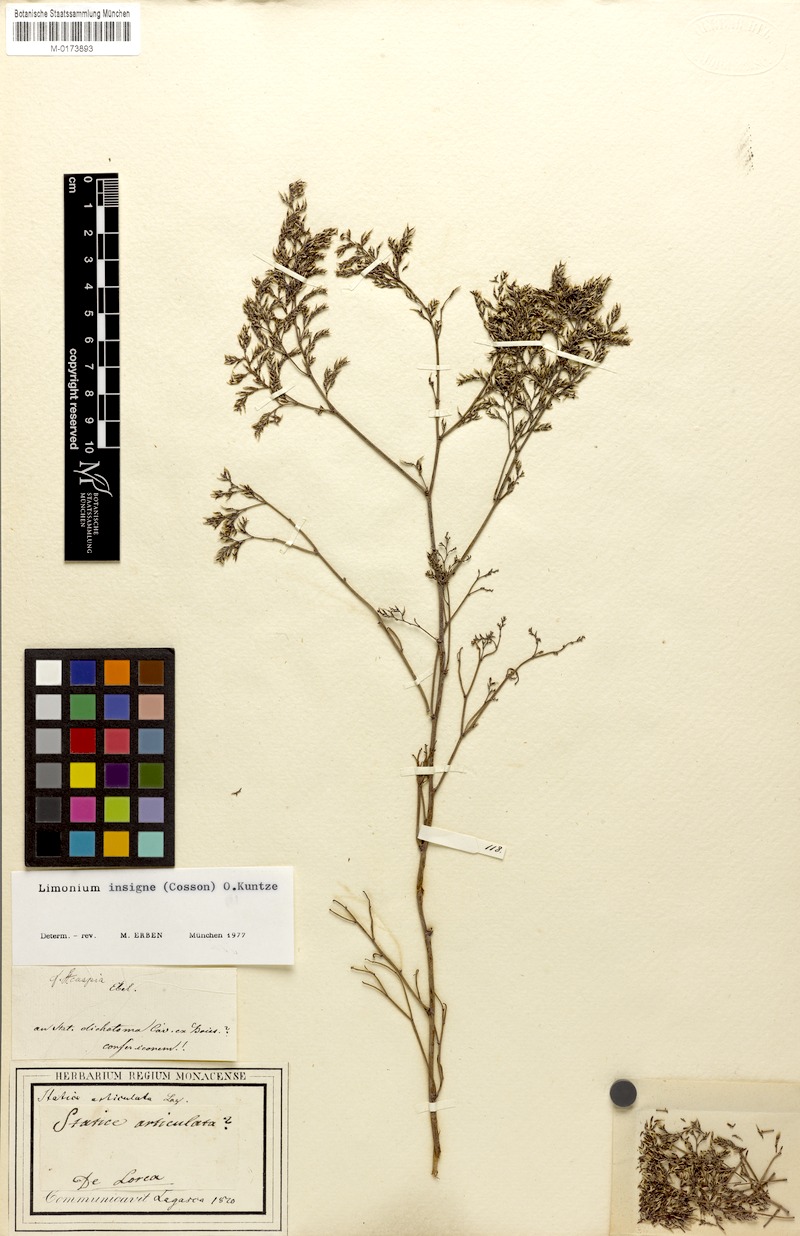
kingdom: Plantae
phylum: Tracheophyta
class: Magnoliopsida
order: Caryophyllales
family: Plumbaginaceae
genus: Limonium
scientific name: Limonium insigne
